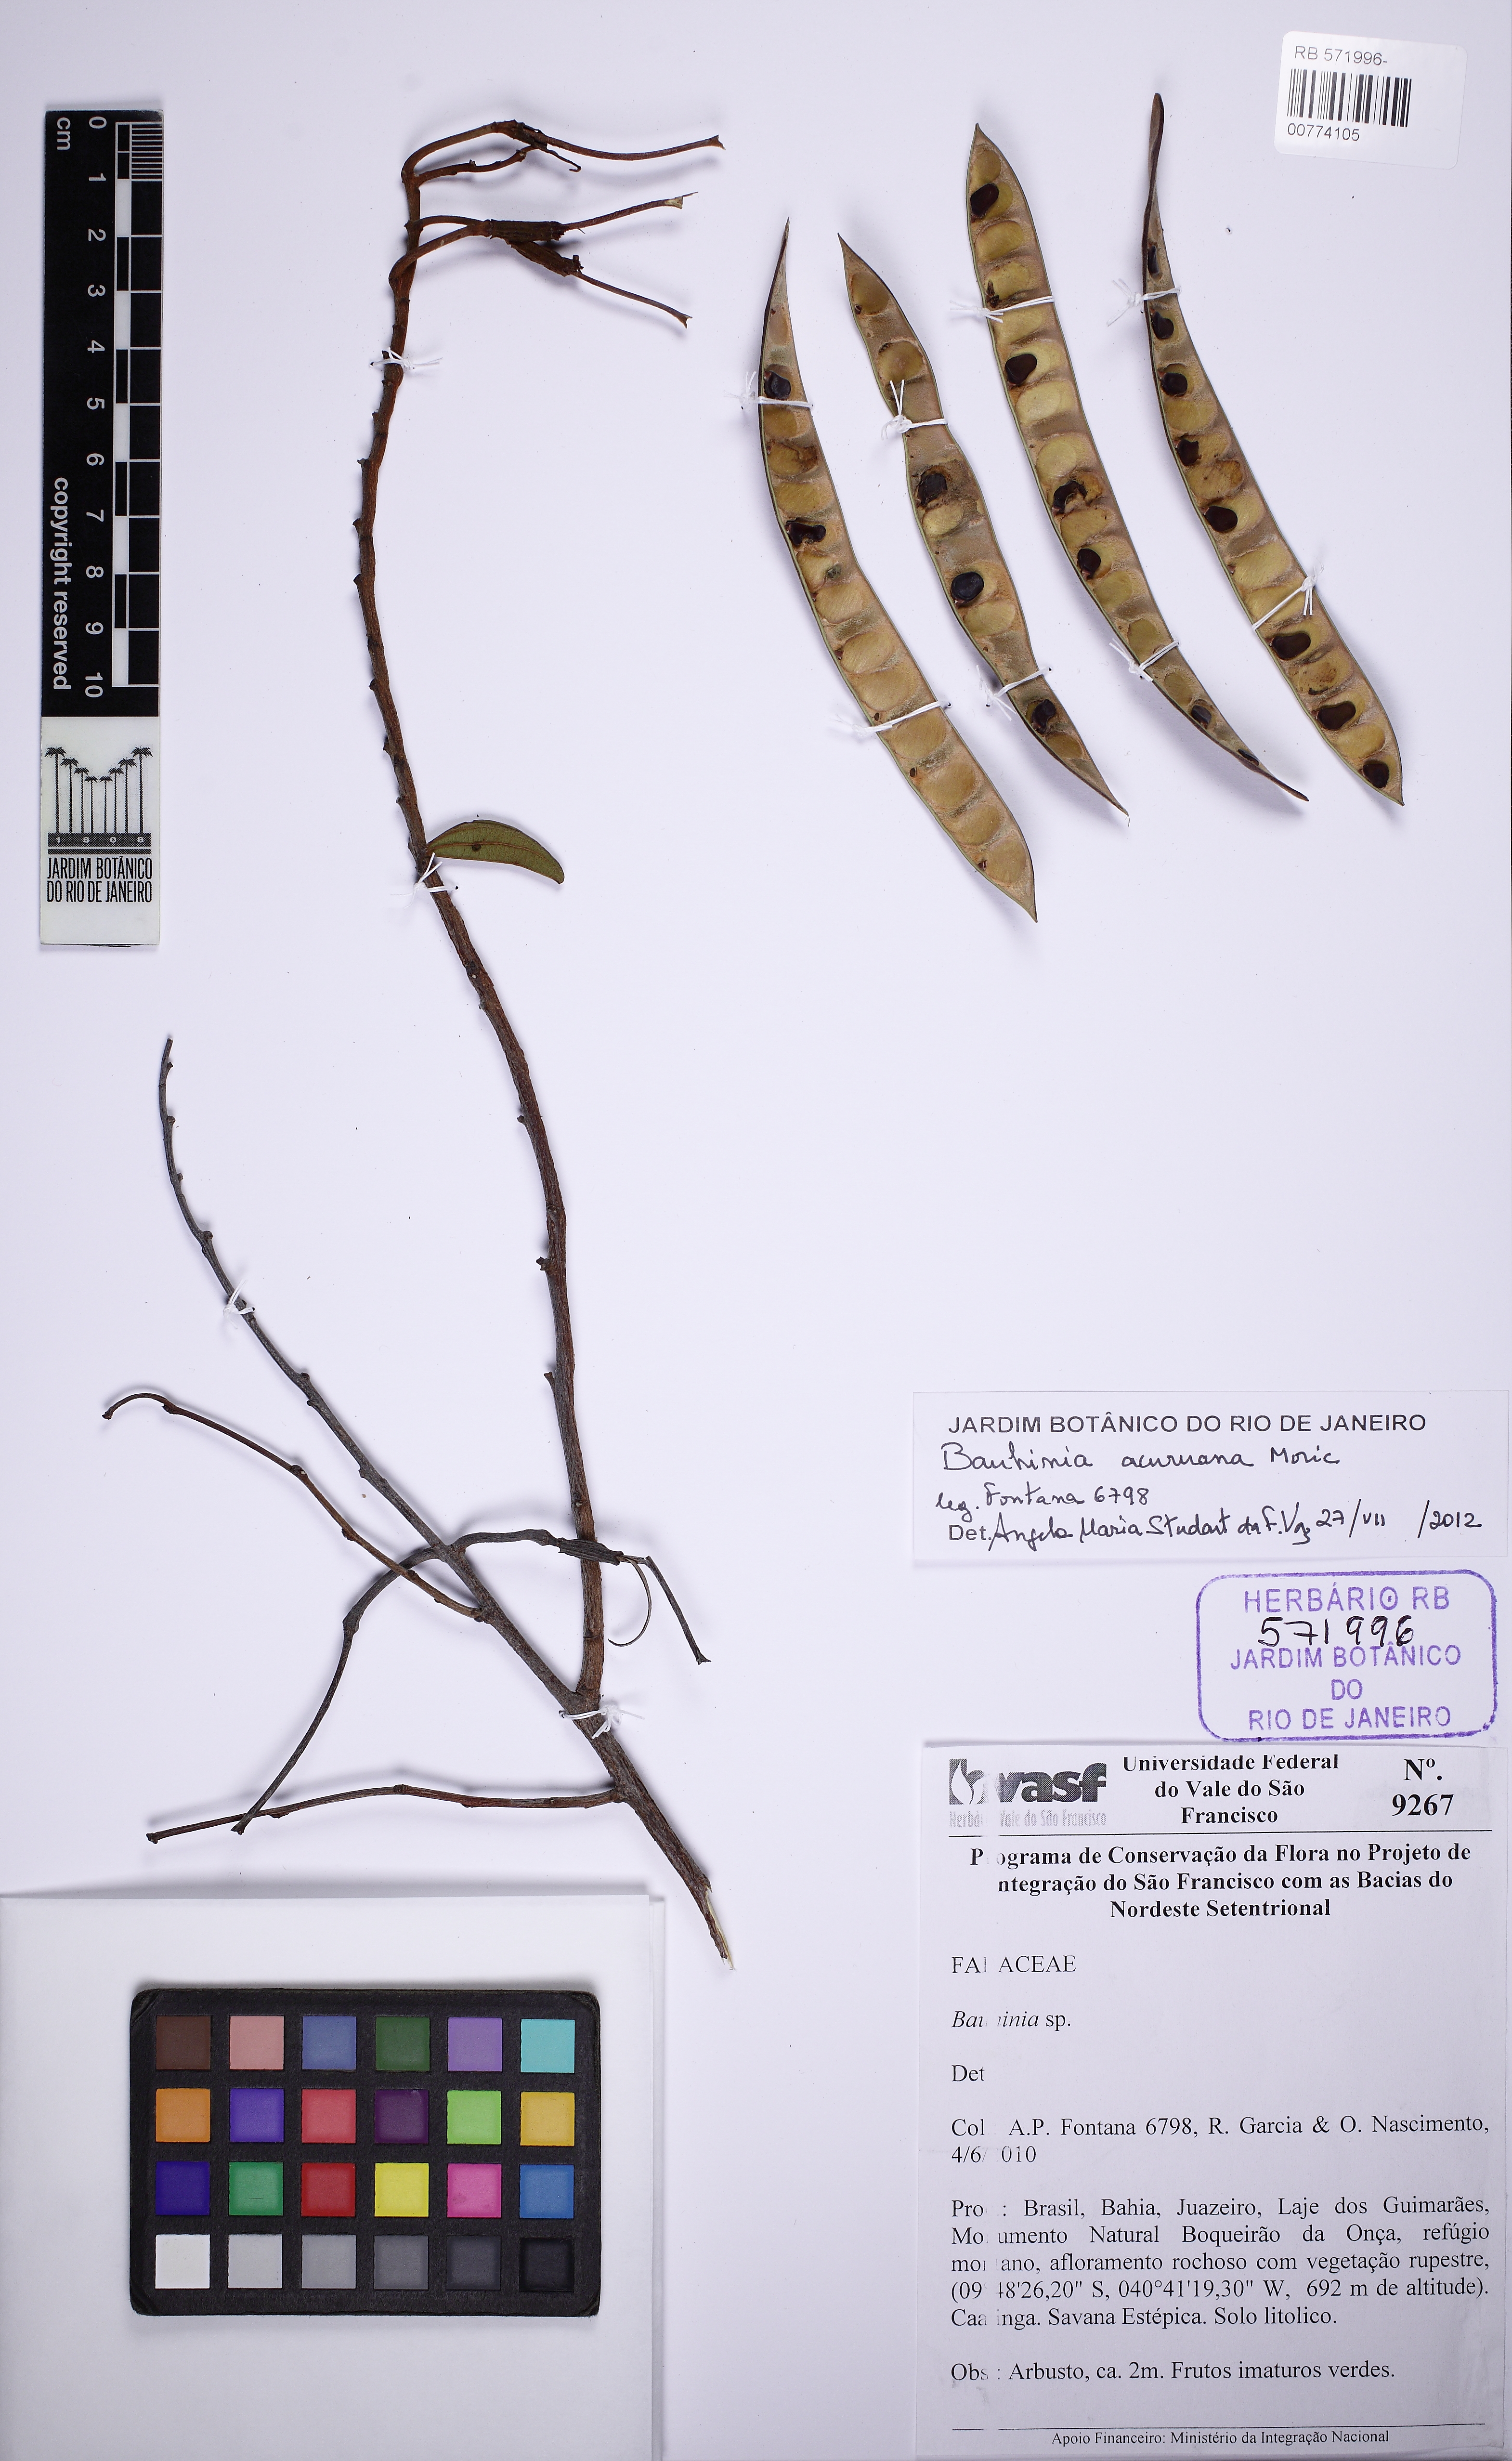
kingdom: Plantae
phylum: Tracheophyta
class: Magnoliopsida
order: Fabales
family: Fabaceae
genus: Bauhinia
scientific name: Bauhinia acuruana
